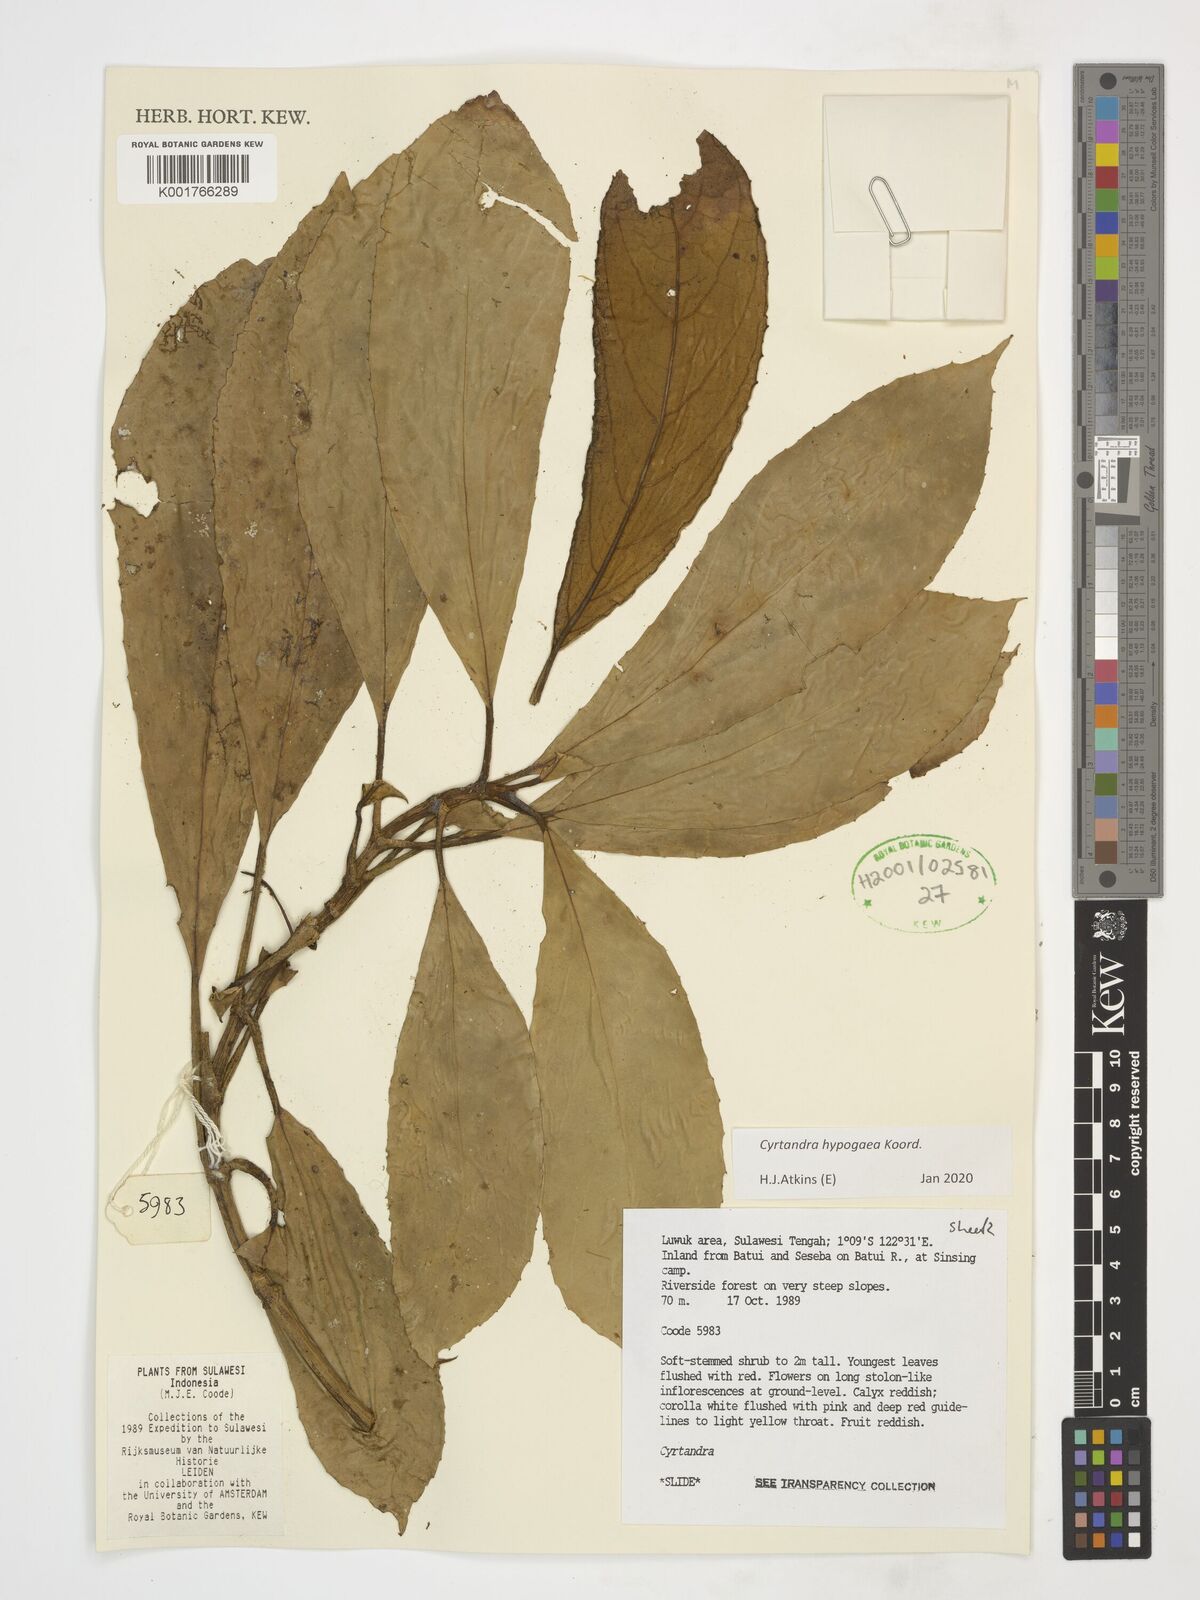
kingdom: Plantae
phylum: Tracheophyta
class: Magnoliopsida
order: Lamiales
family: Gesneriaceae
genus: Cyrtandra
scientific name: Cyrtandra hypogaea
